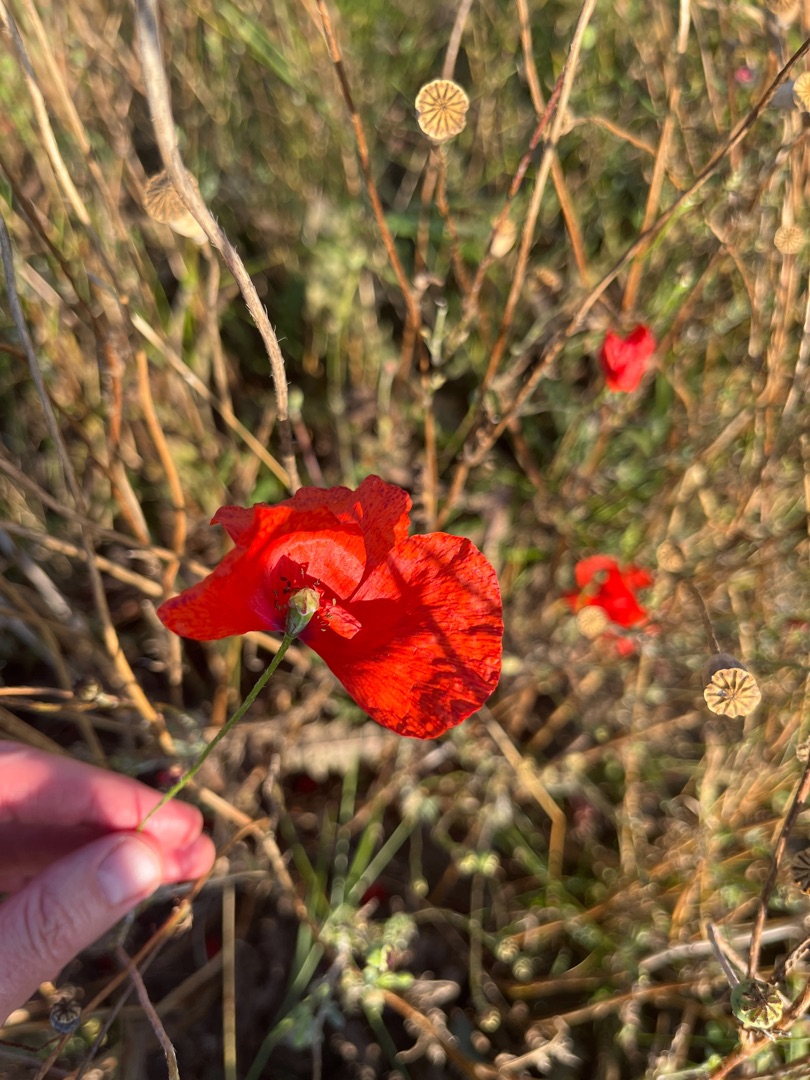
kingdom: Plantae
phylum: Tracheophyta
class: Magnoliopsida
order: Ranunculales
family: Papaveraceae
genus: Papaver
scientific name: Papaver rhoeas
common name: Korn-valmue
